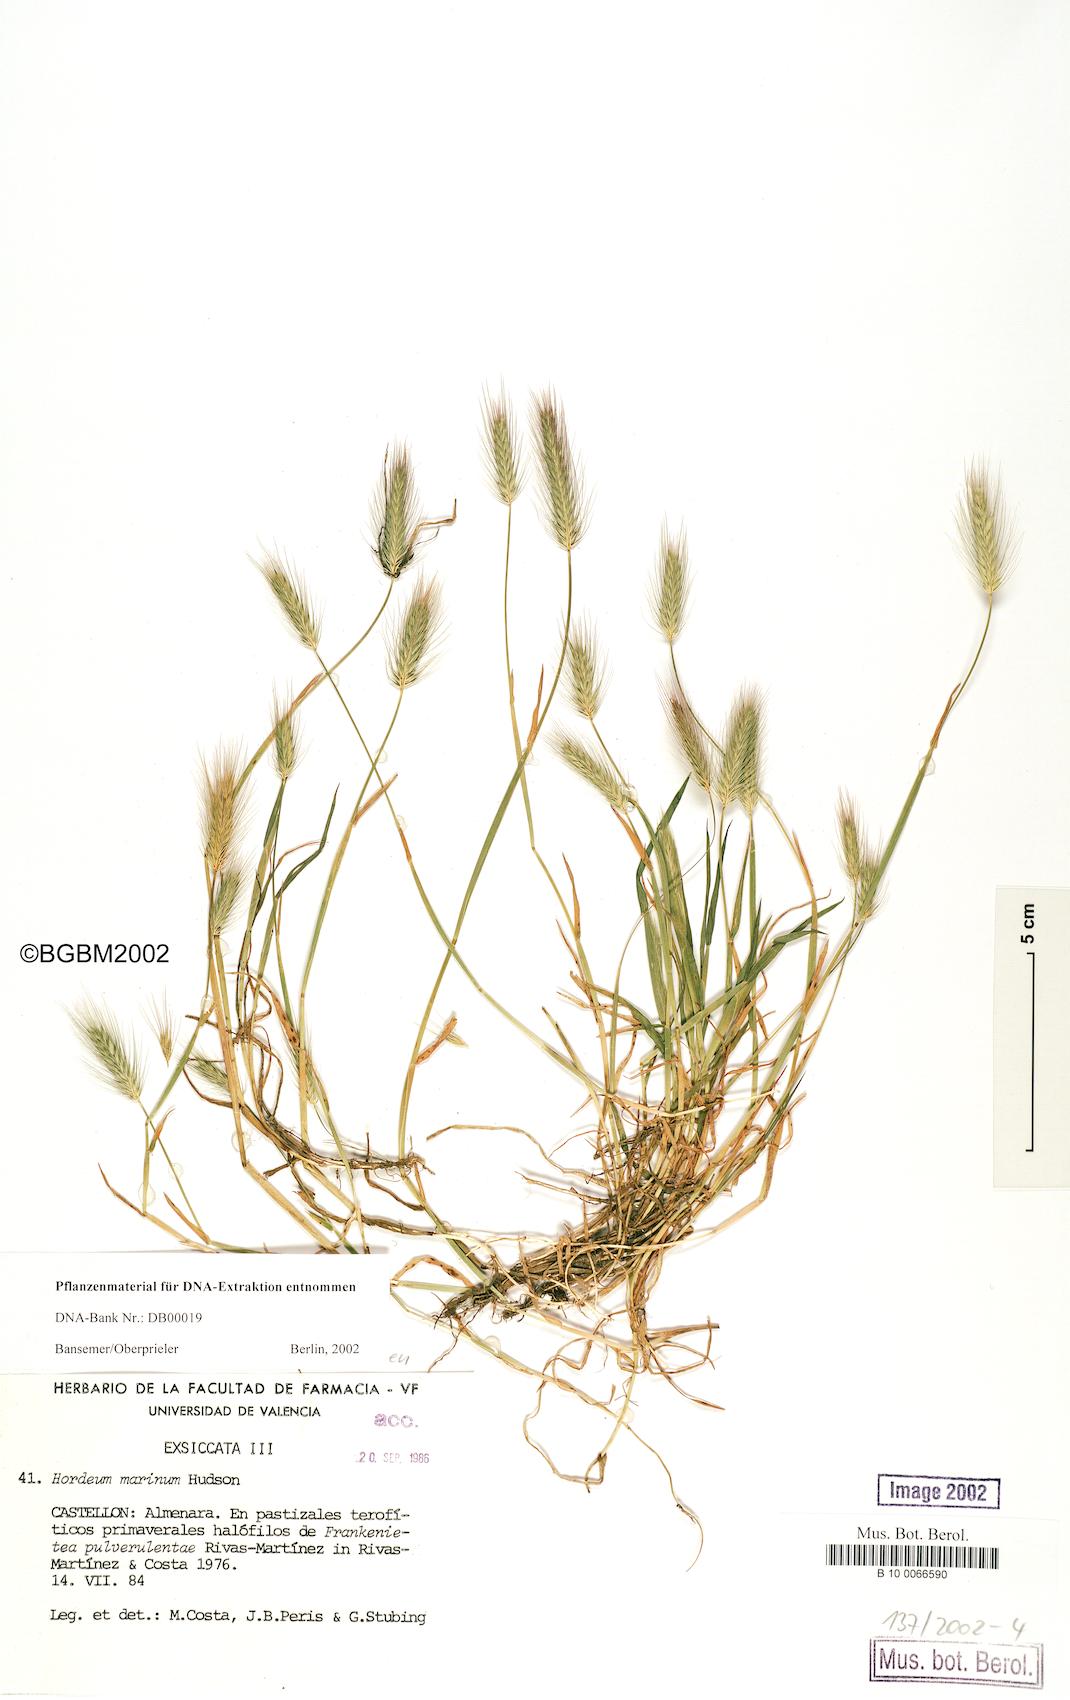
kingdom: Plantae
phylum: Tracheophyta
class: Liliopsida
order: Poales
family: Poaceae
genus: Hordeum
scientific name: Hordeum marinum
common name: Sea barley
